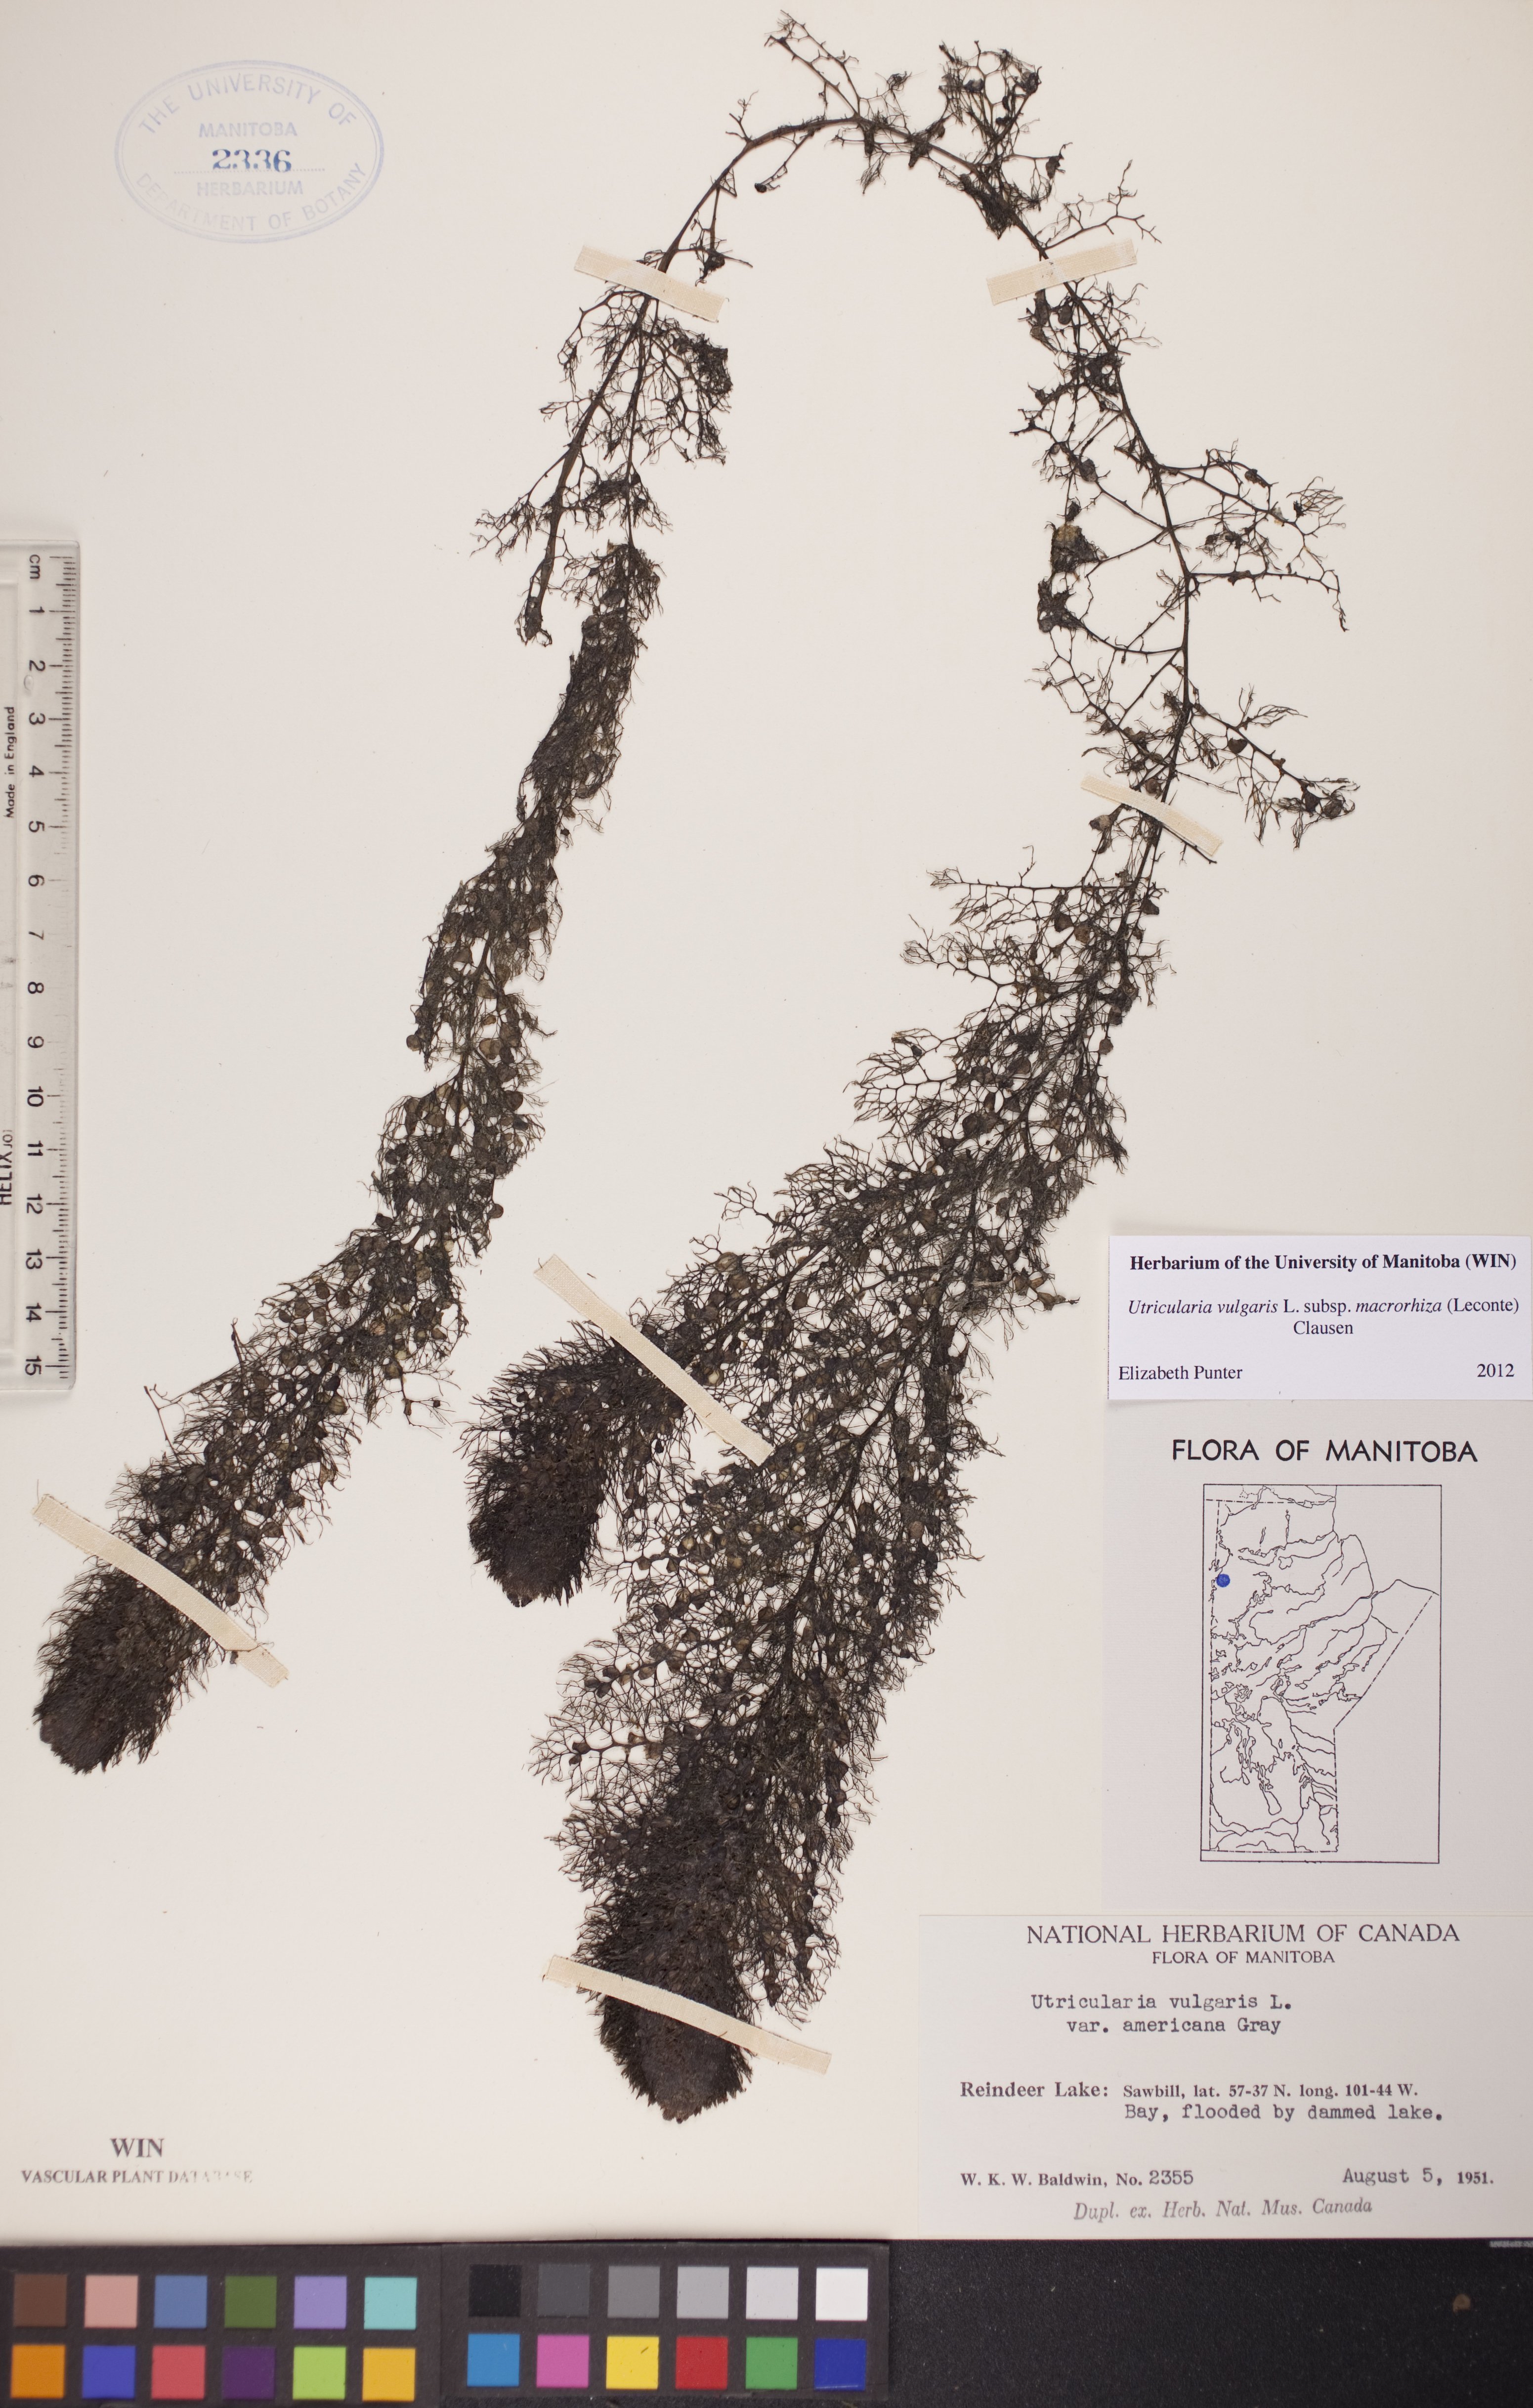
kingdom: Plantae
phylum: Tracheophyta
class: Magnoliopsida
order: Lamiales
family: Lentibulariaceae
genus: Utricularia
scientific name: Utricularia macrorhiza
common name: Common bladderwort
